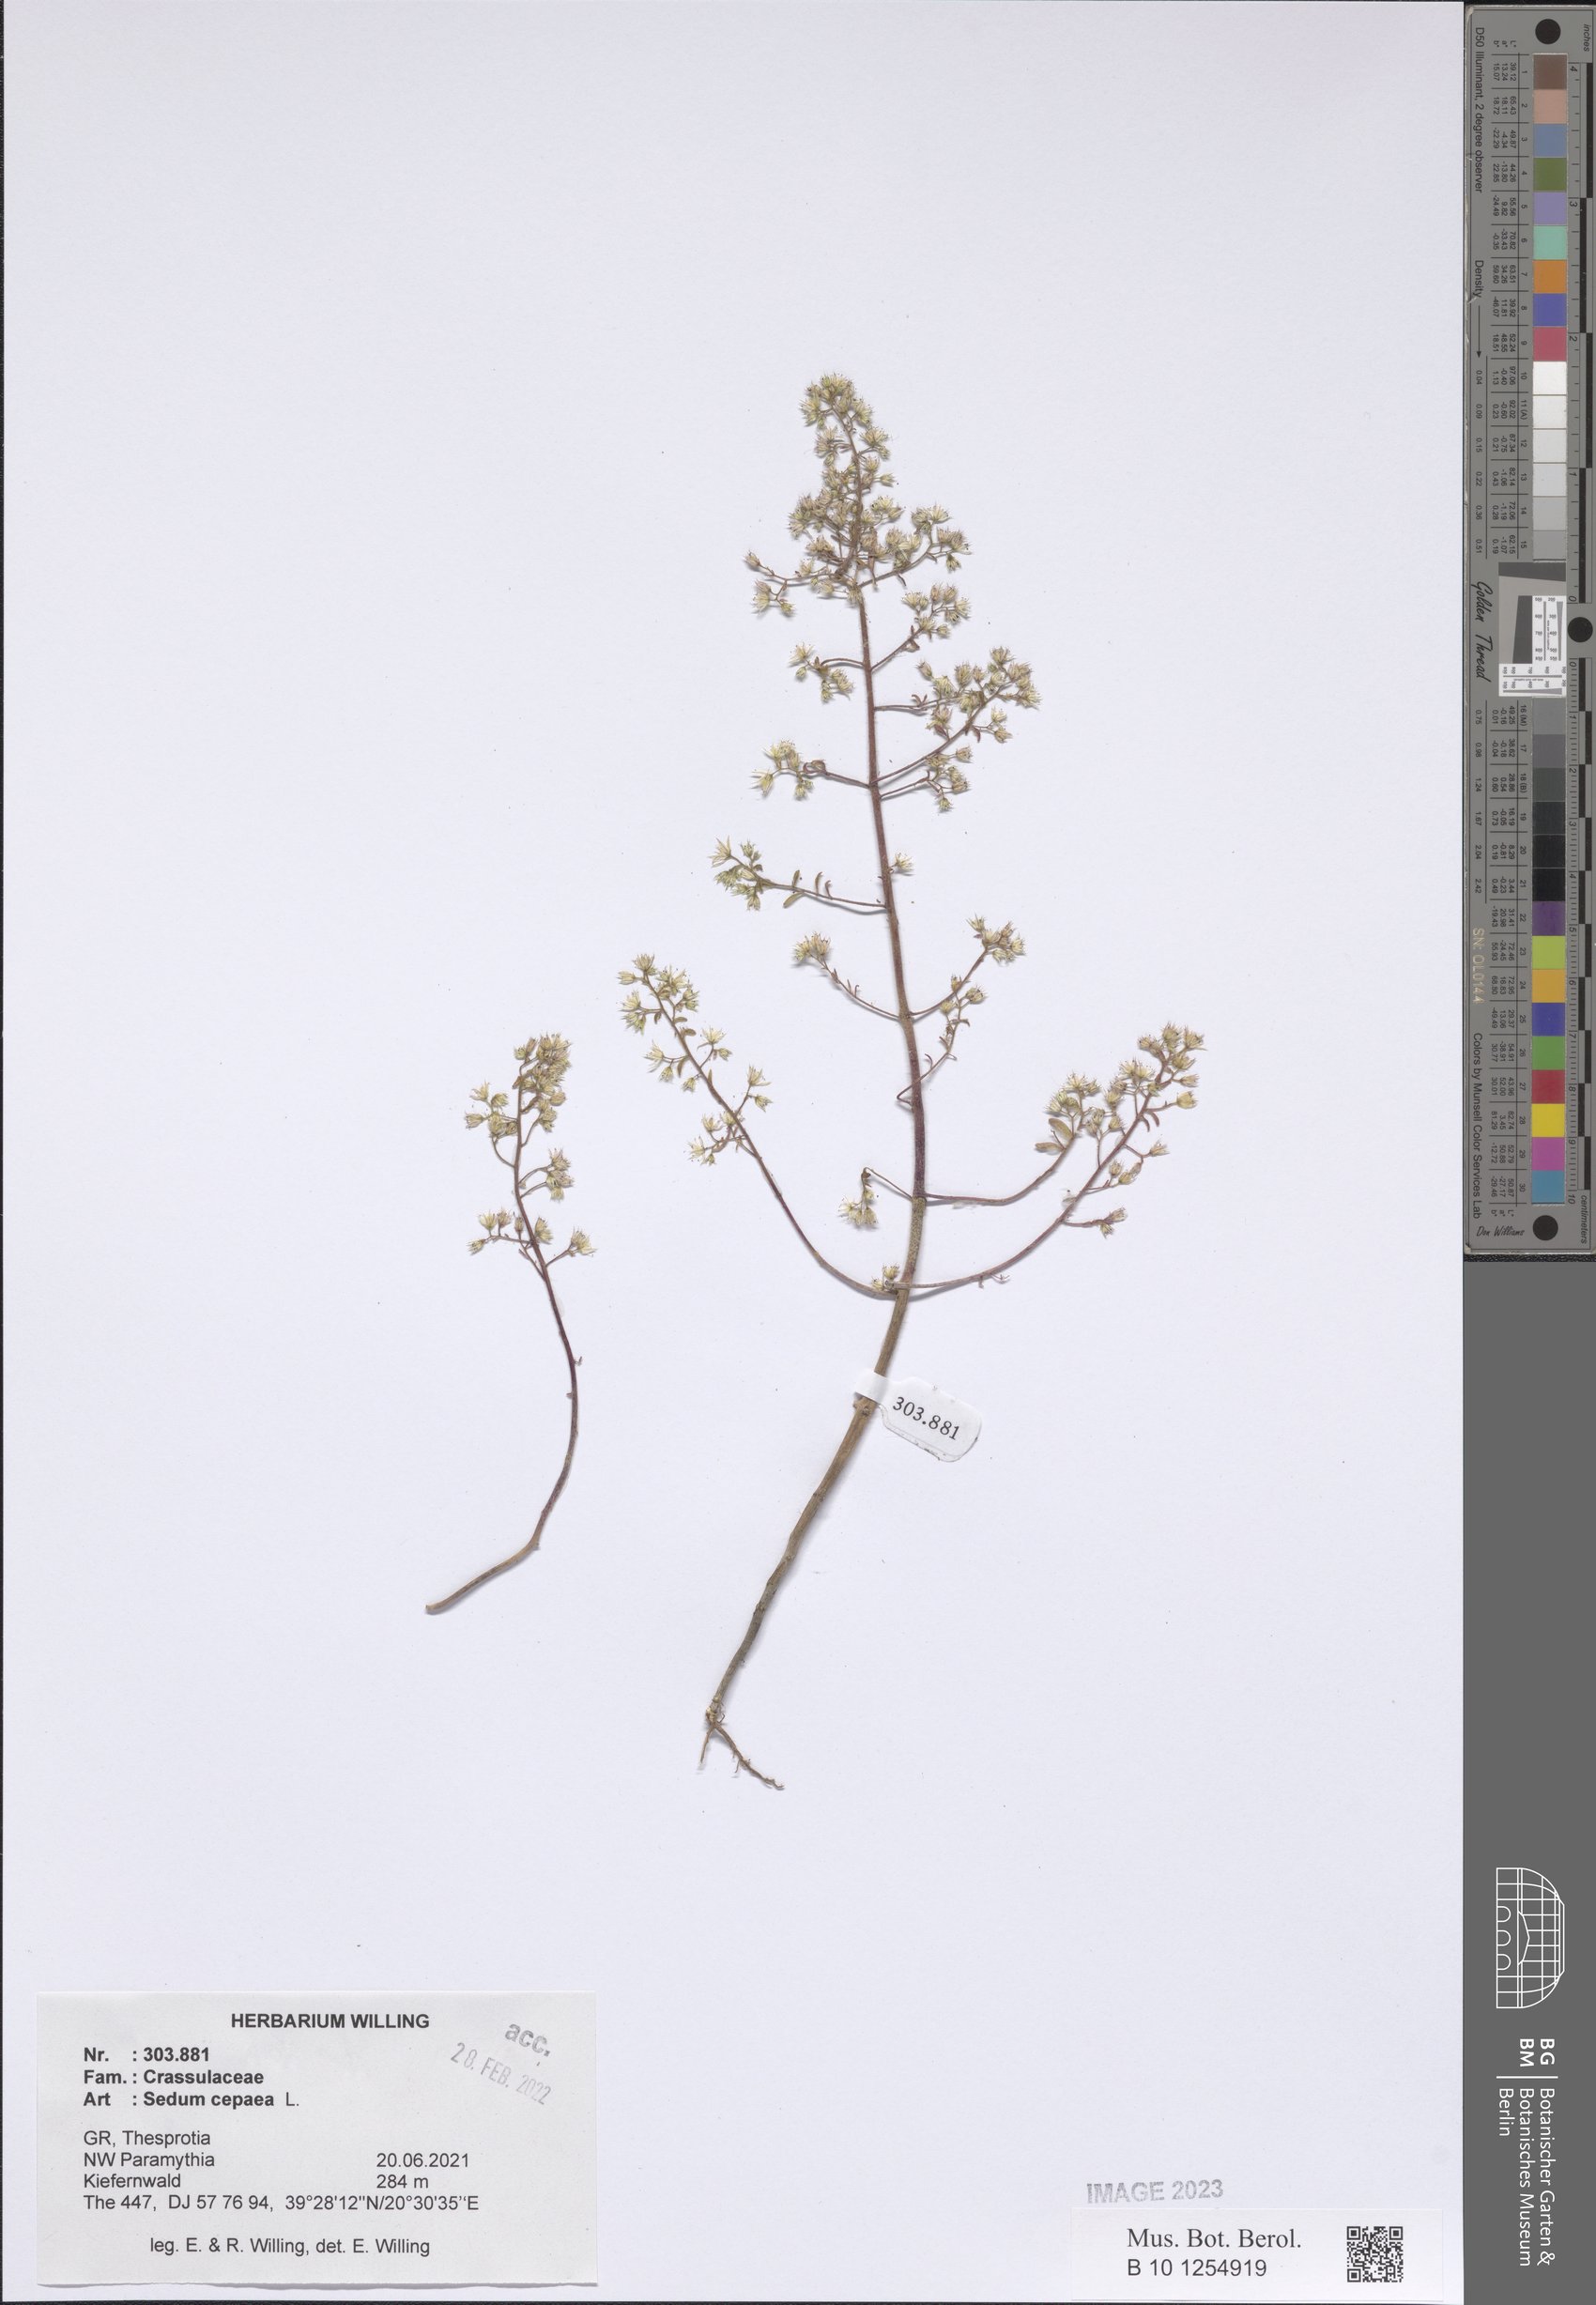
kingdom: Plantae
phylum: Tracheophyta
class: Magnoliopsida
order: Saxifragales
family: Crassulaceae
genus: Sedum
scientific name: Sedum cepaea
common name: Pink stonecrop
